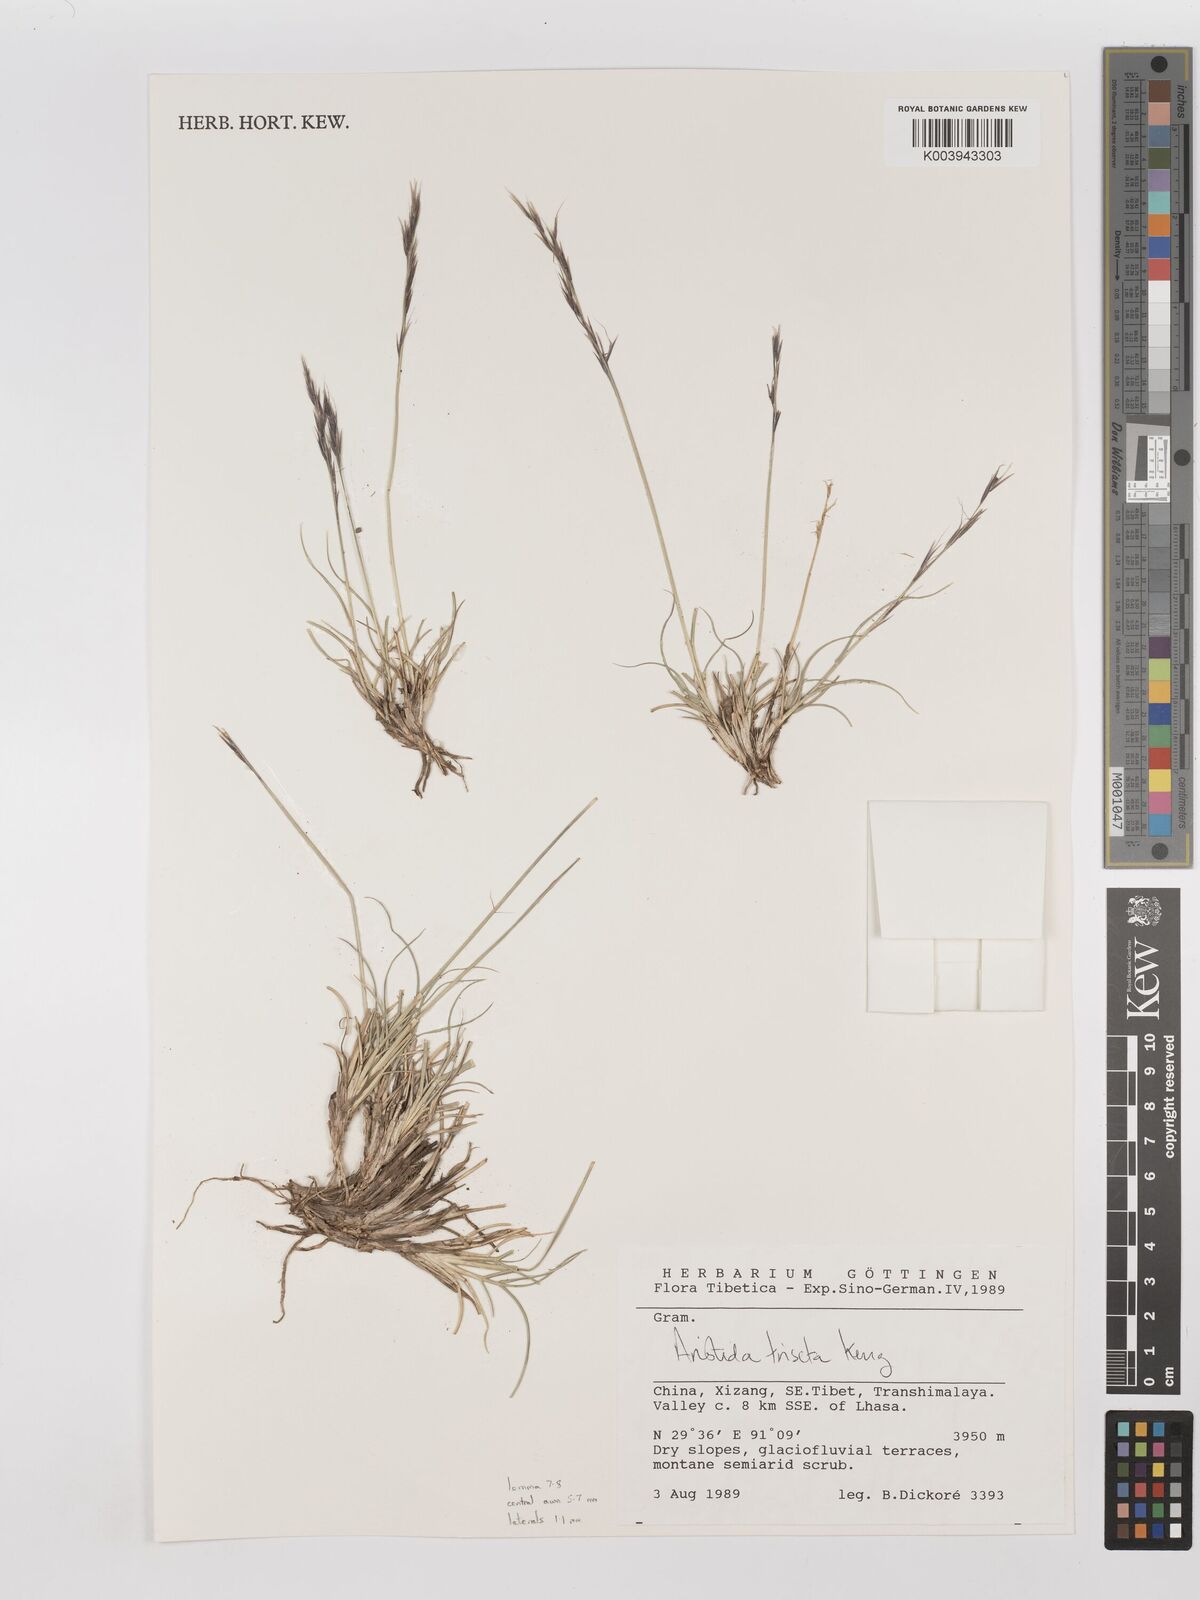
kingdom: Plantae
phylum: Tracheophyta
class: Liliopsida
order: Poales
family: Poaceae
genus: Aristida
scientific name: Aristida triseta
